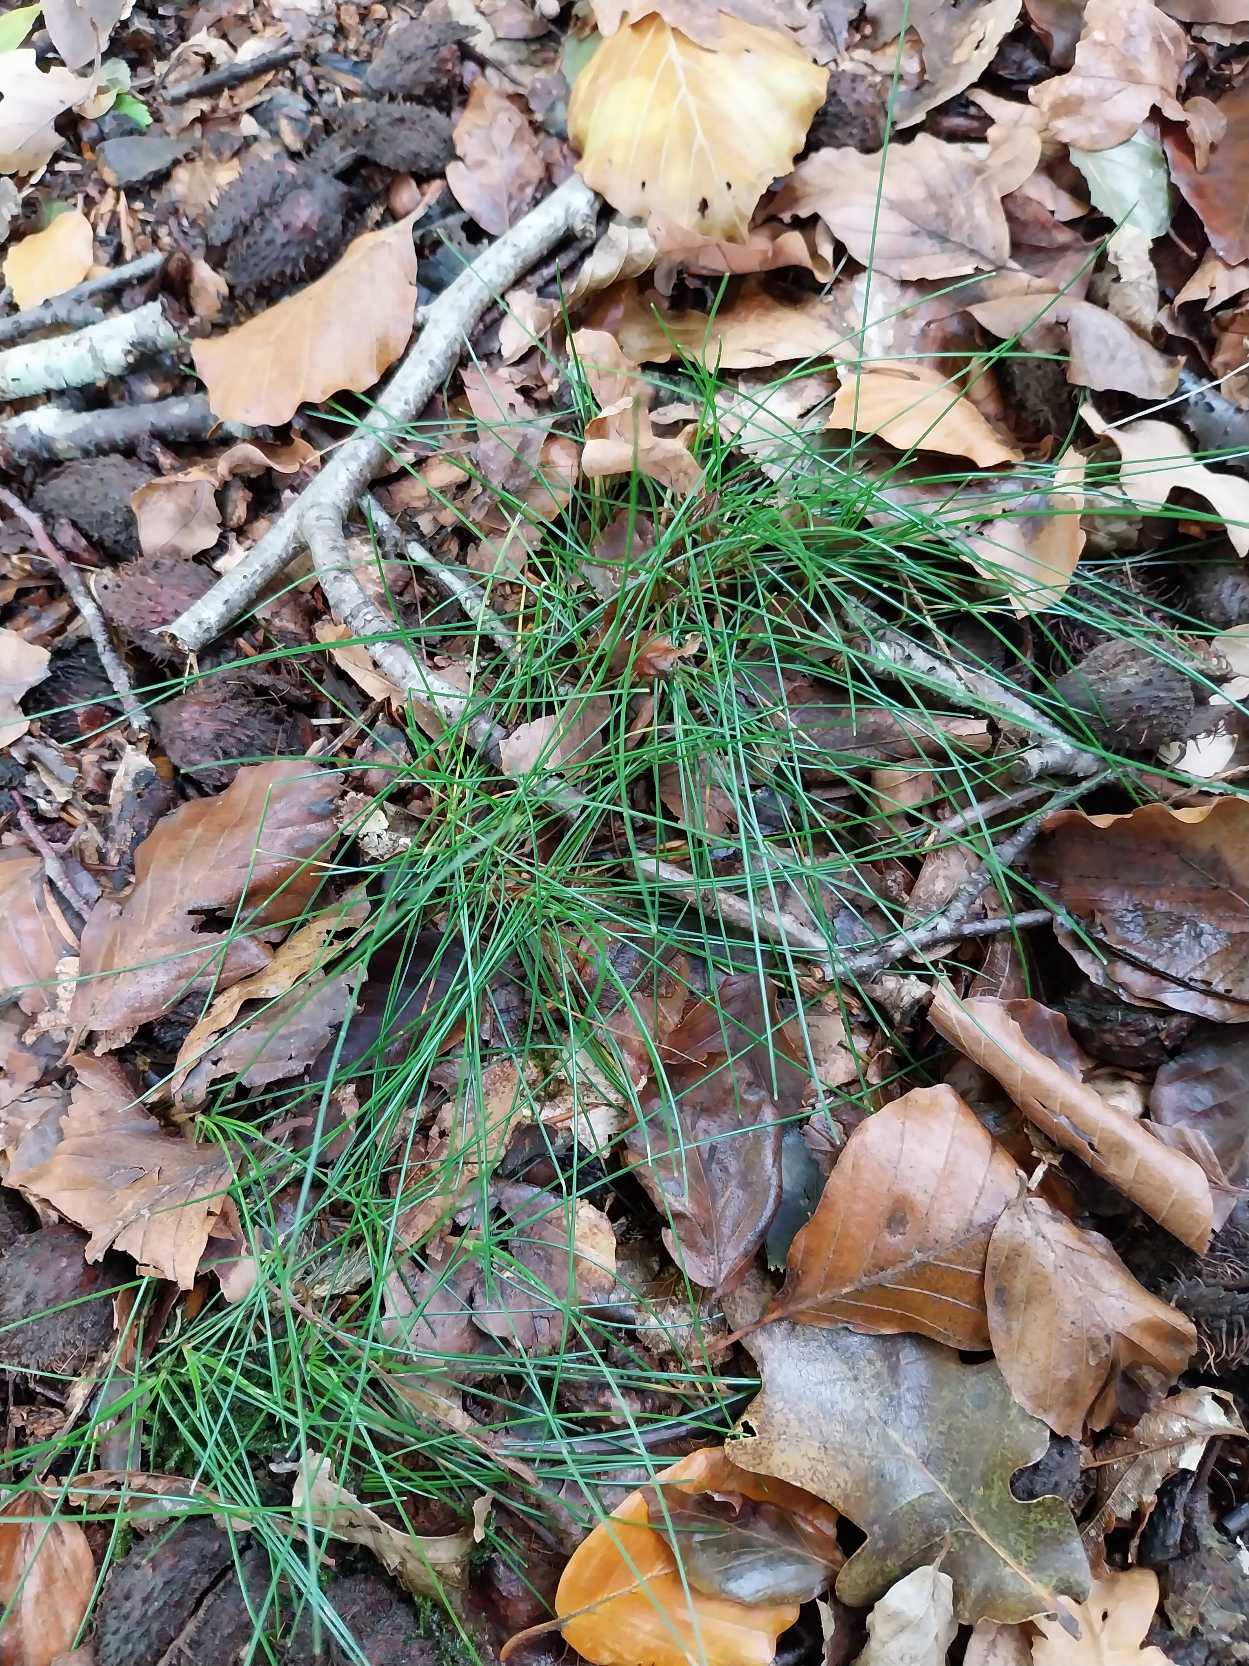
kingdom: Plantae
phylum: Tracheophyta
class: Liliopsida
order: Poales
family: Poaceae
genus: Avenella
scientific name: Avenella flexuosa
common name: Bølget bunke
